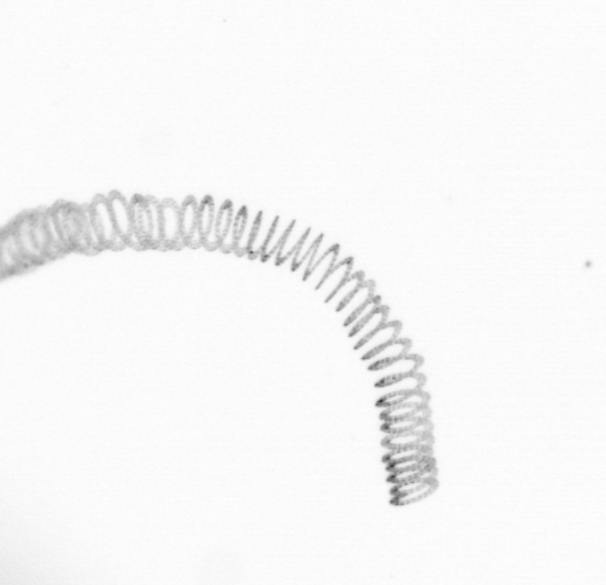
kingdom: Chromista
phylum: Ochrophyta
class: Bacillariophyceae
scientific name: Bacillariophyceae
